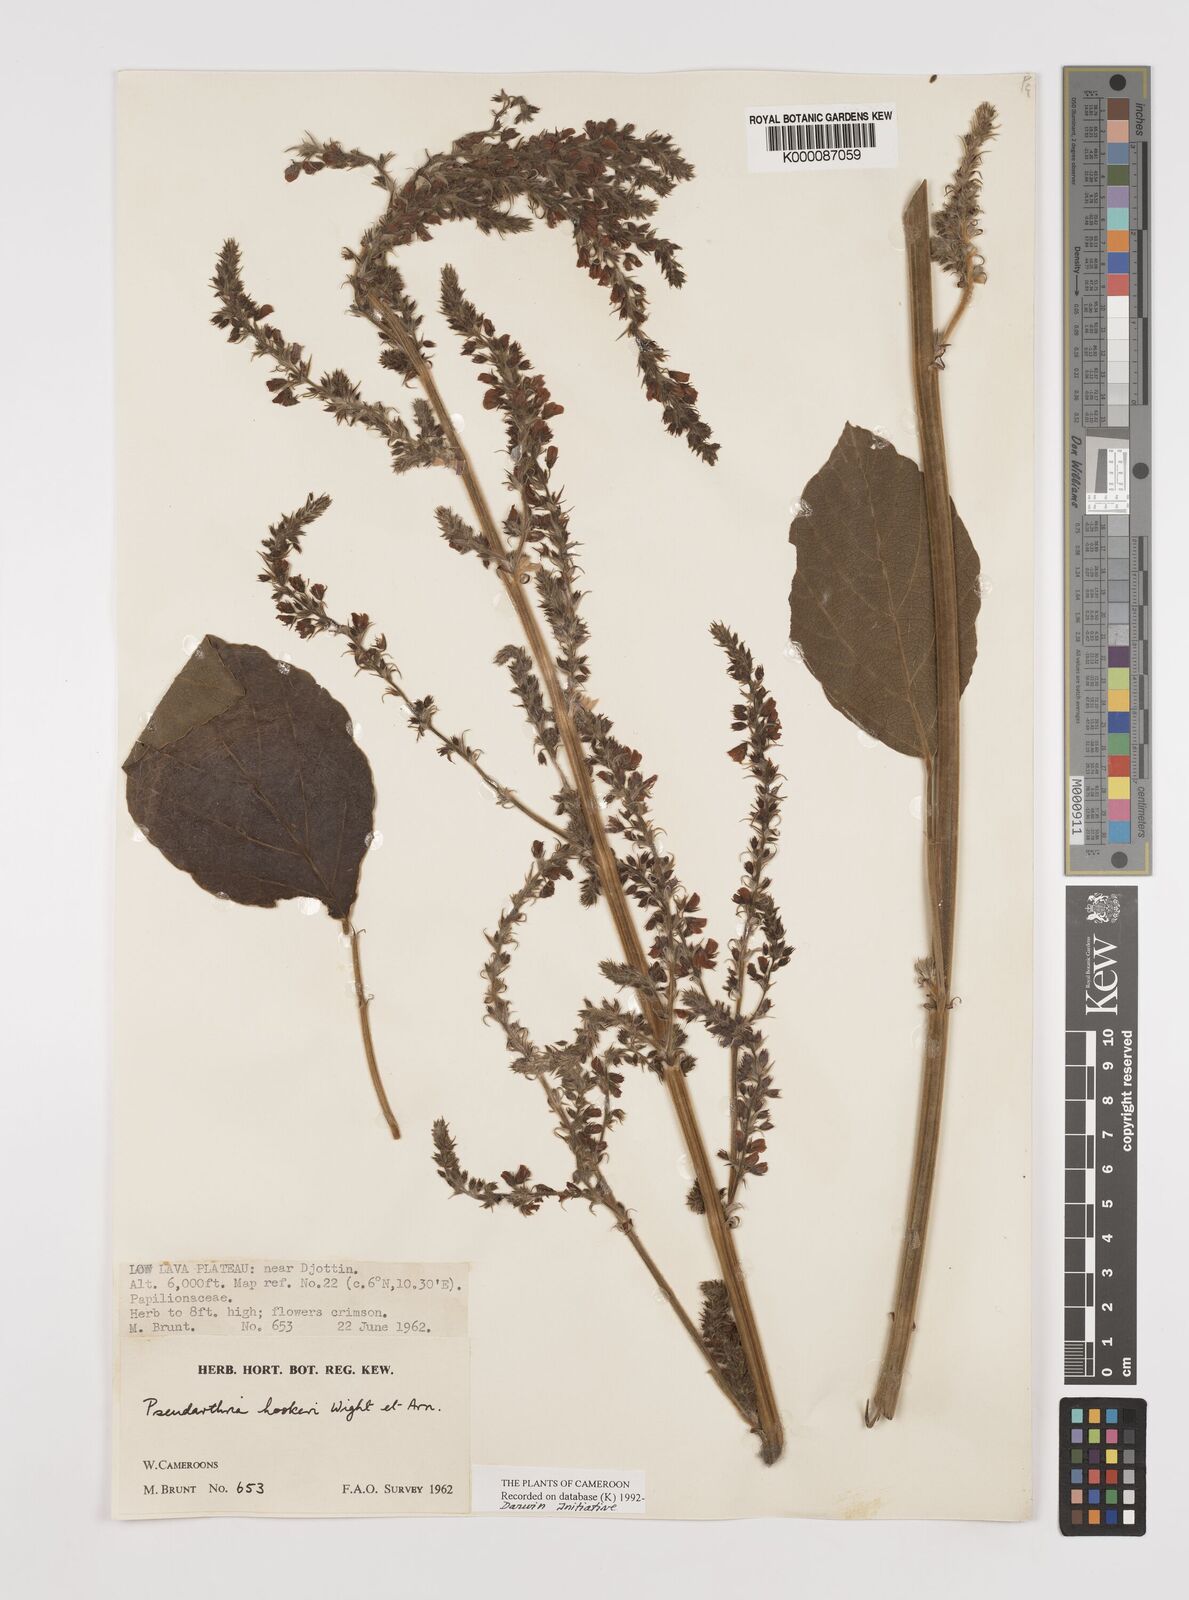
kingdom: Plantae
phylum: Tracheophyta
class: Magnoliopsida
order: Fabales
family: Fabaceae
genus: Pseudarthria
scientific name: Pseudarthria hookeri
